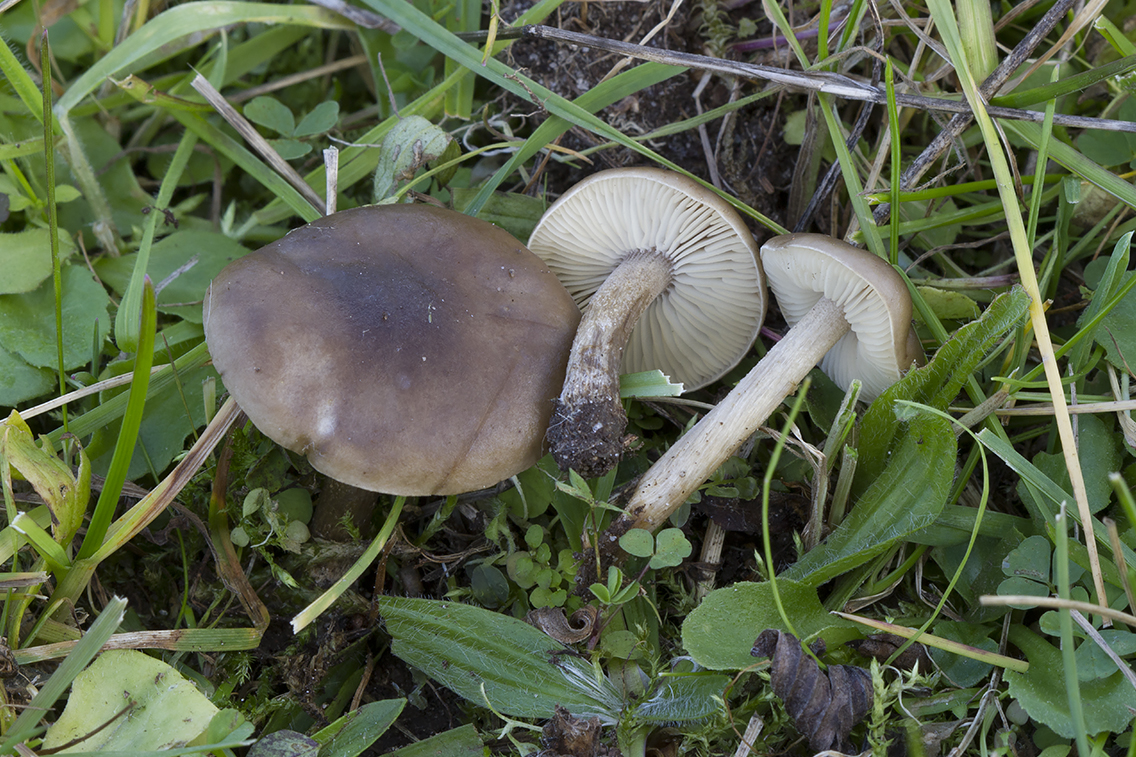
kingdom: Fungi
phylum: Basidiomycota
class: Agaricomycetes
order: Agaricales
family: Tricholomataceae
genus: Melanoleuca
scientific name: Melanoleuca bataillei
